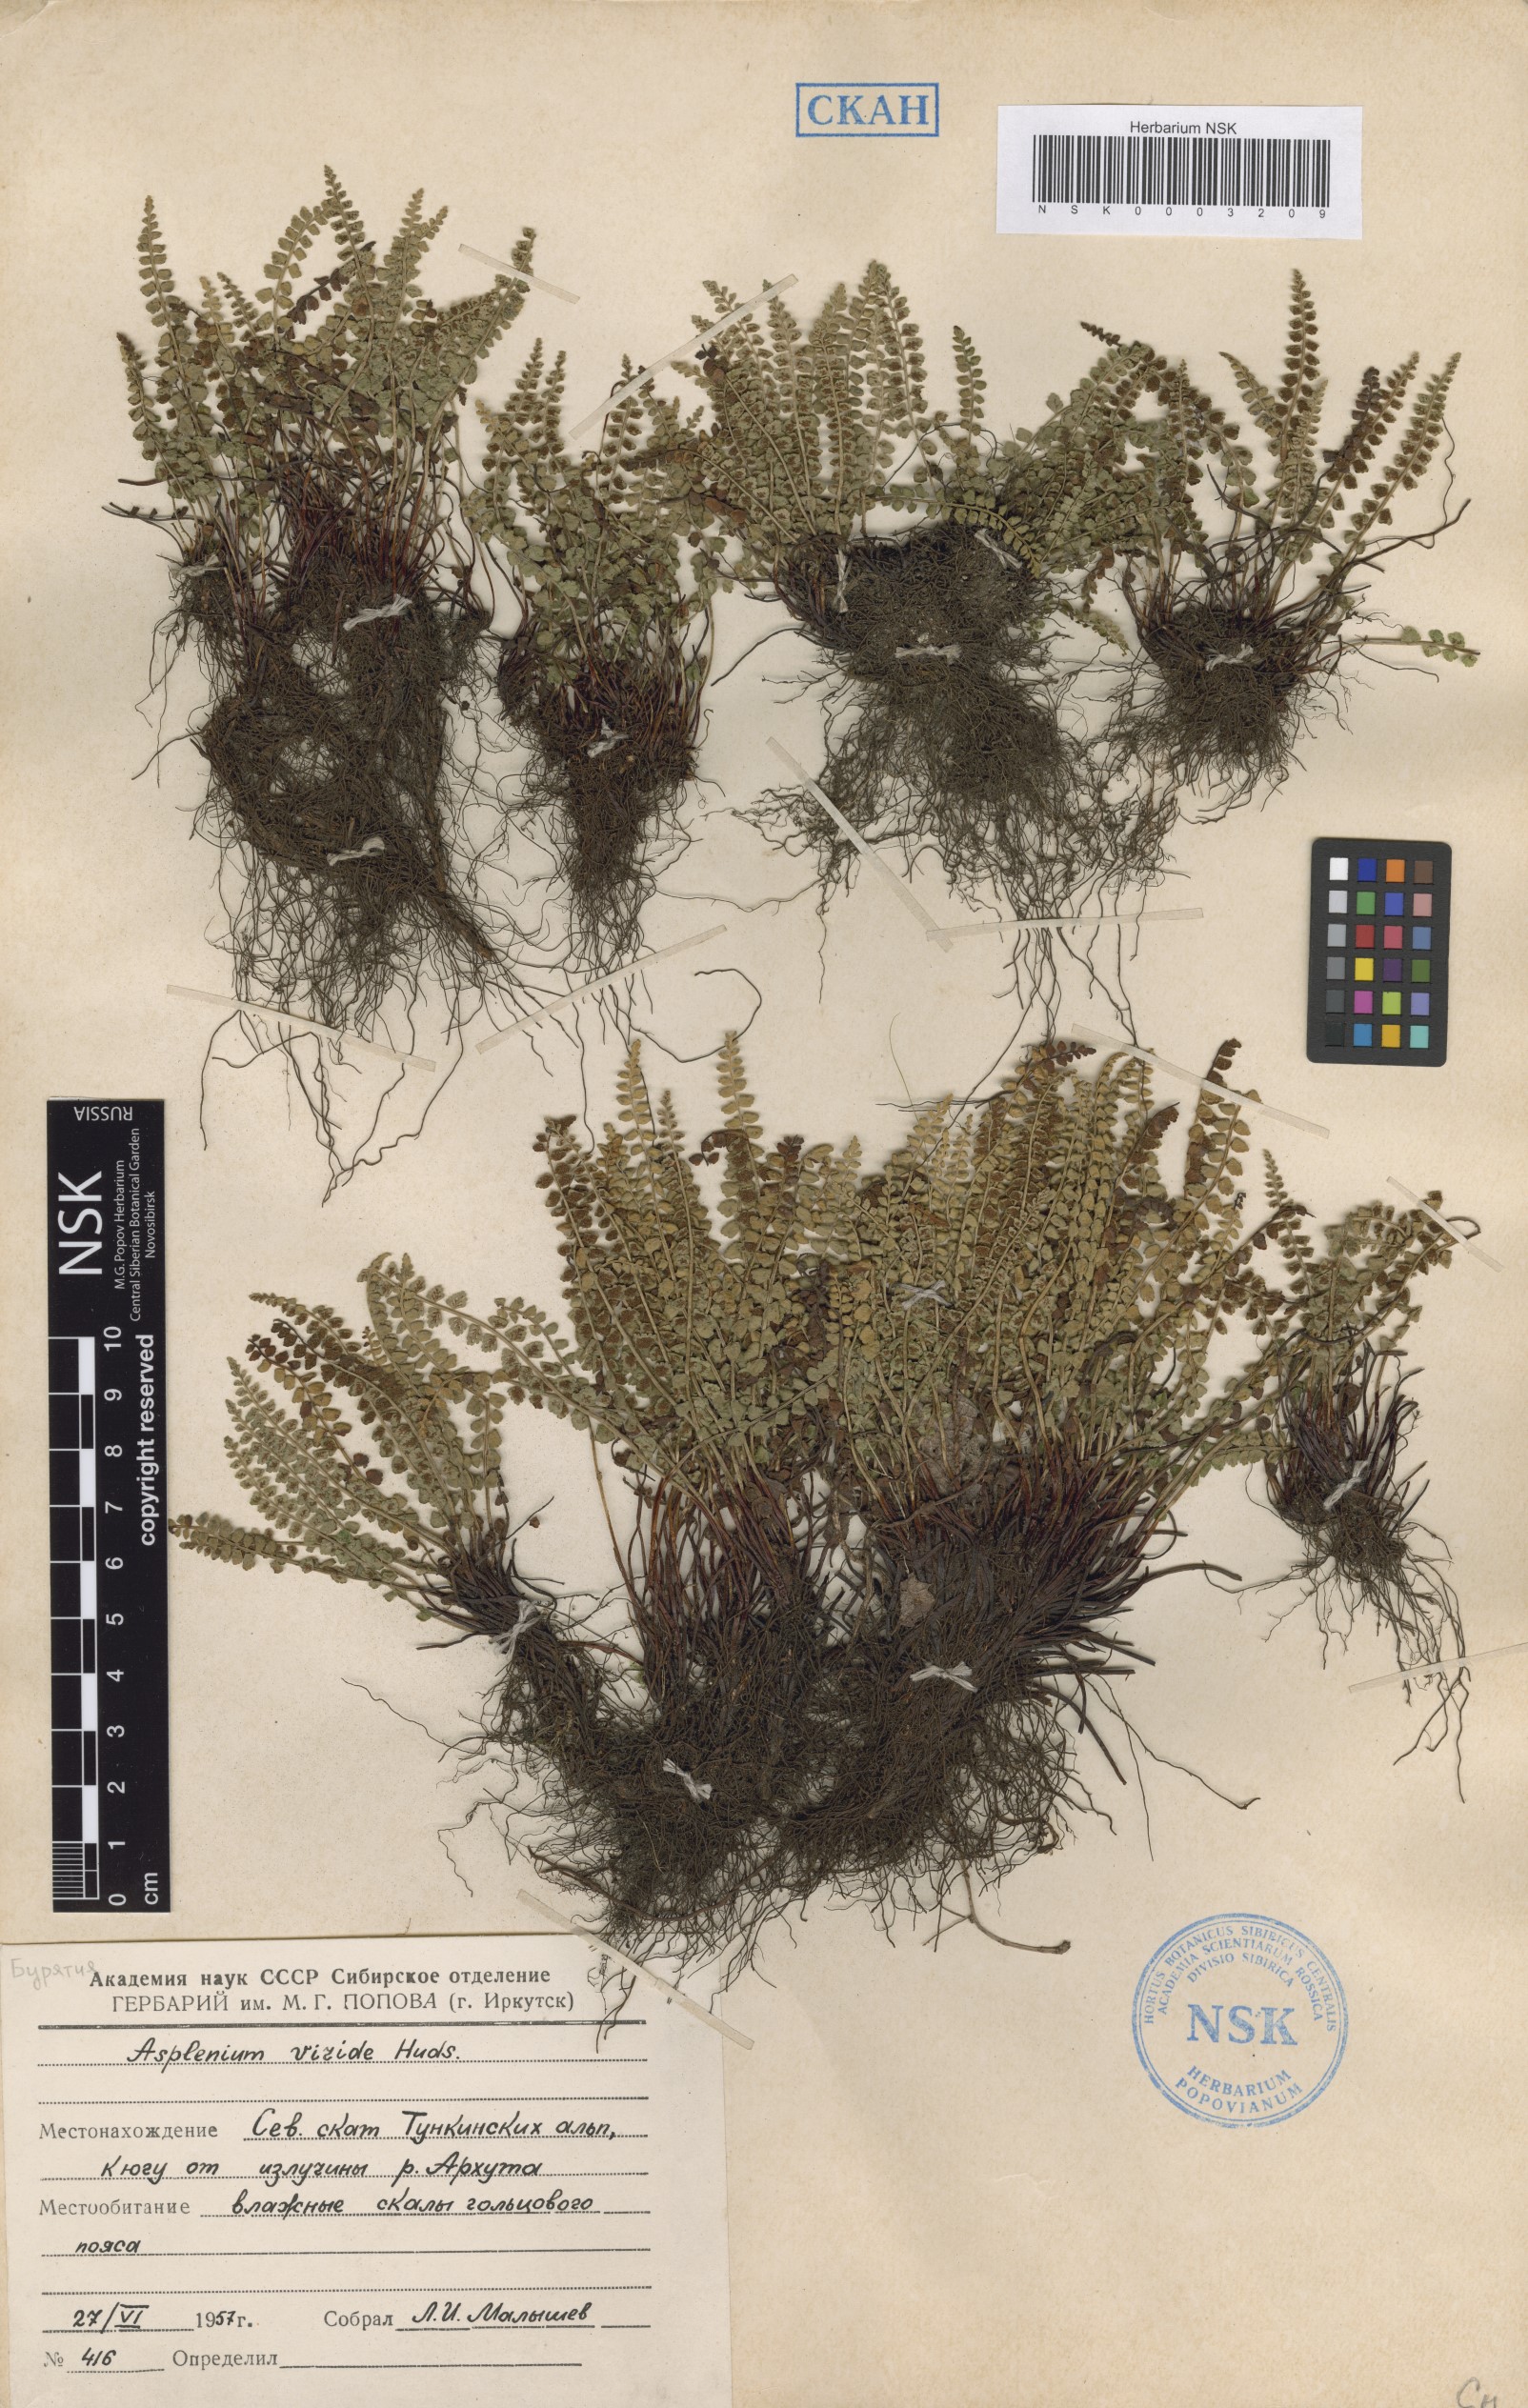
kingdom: Plantae
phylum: Tracheophyta
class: Polypodiopsida
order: Polypodiales
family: Aspleniaceae
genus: Asplenium
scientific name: Asplenium viride
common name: Green spleenwort
